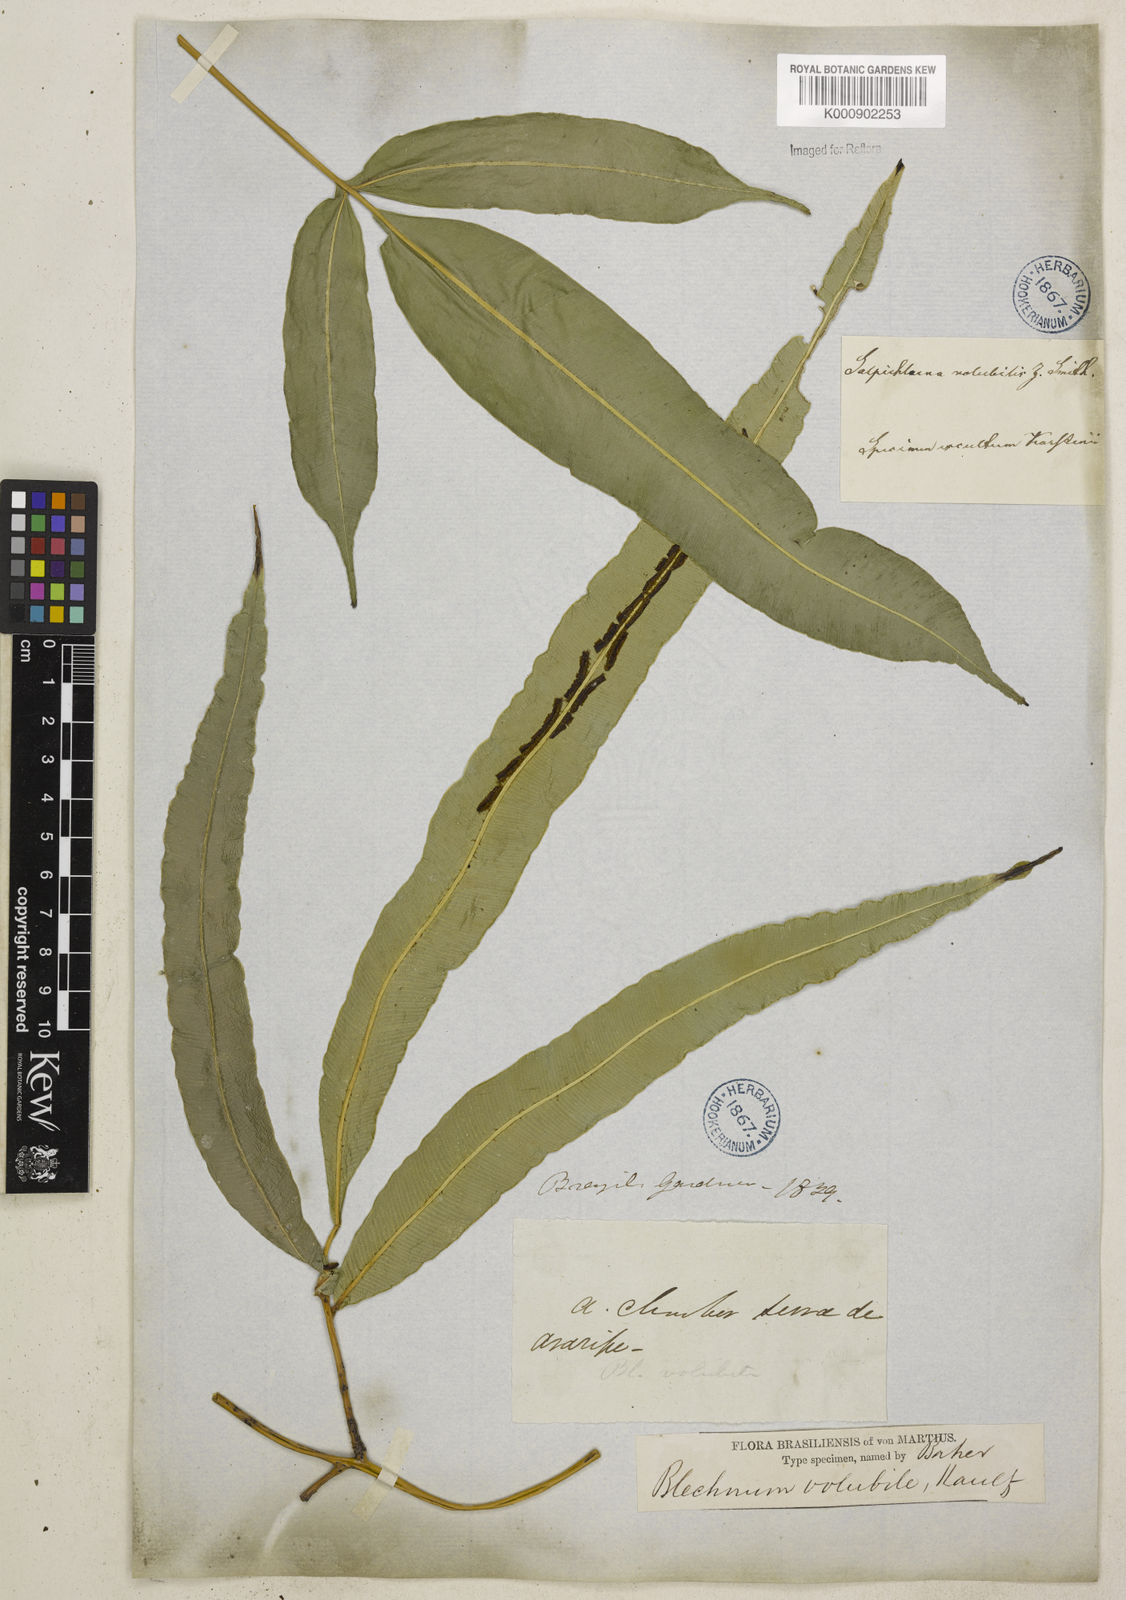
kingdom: Plantae
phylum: Tracheophyta
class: Polypodiopsida
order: Polypodiales
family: Blechnaceae
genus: Salpichlaena
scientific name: Salpichlaena volubilis
